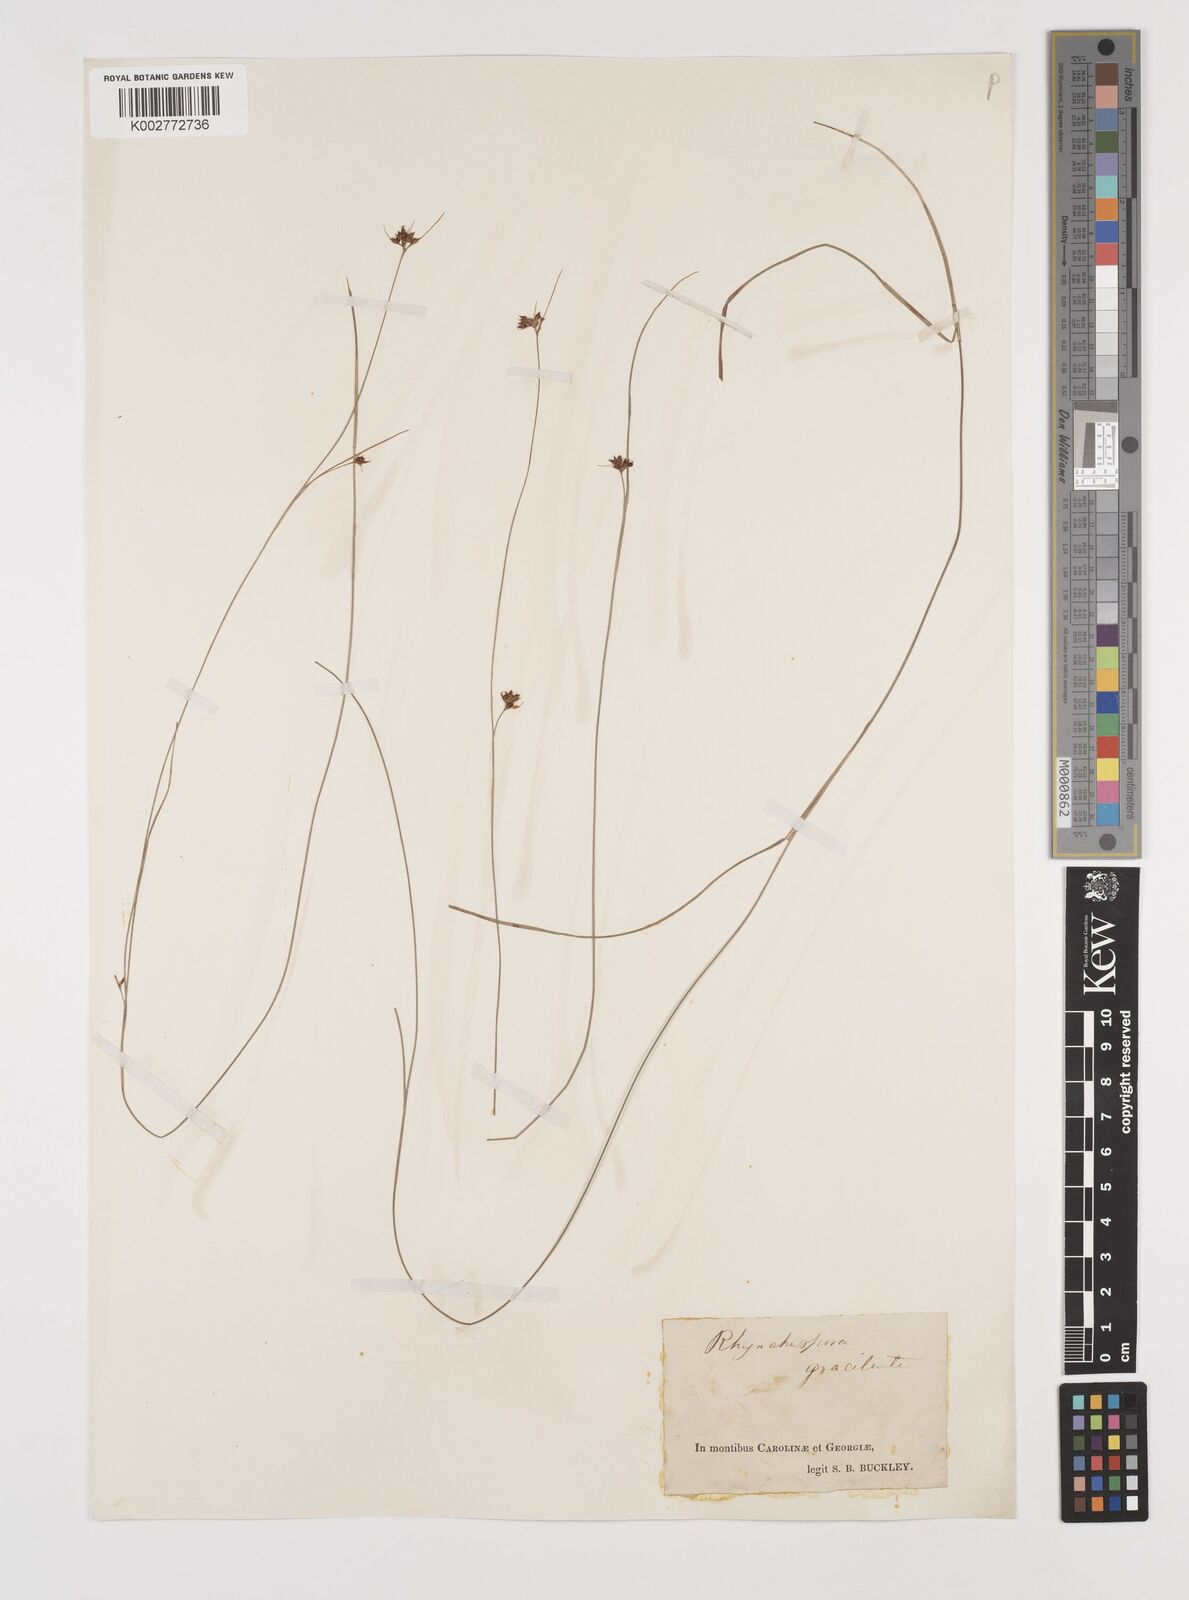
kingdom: Plantae
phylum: Tracheophyta
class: Liliopsida
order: Poales
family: Cyperaceae
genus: Rhynchospora
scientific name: Rhynchospora gracilenta
